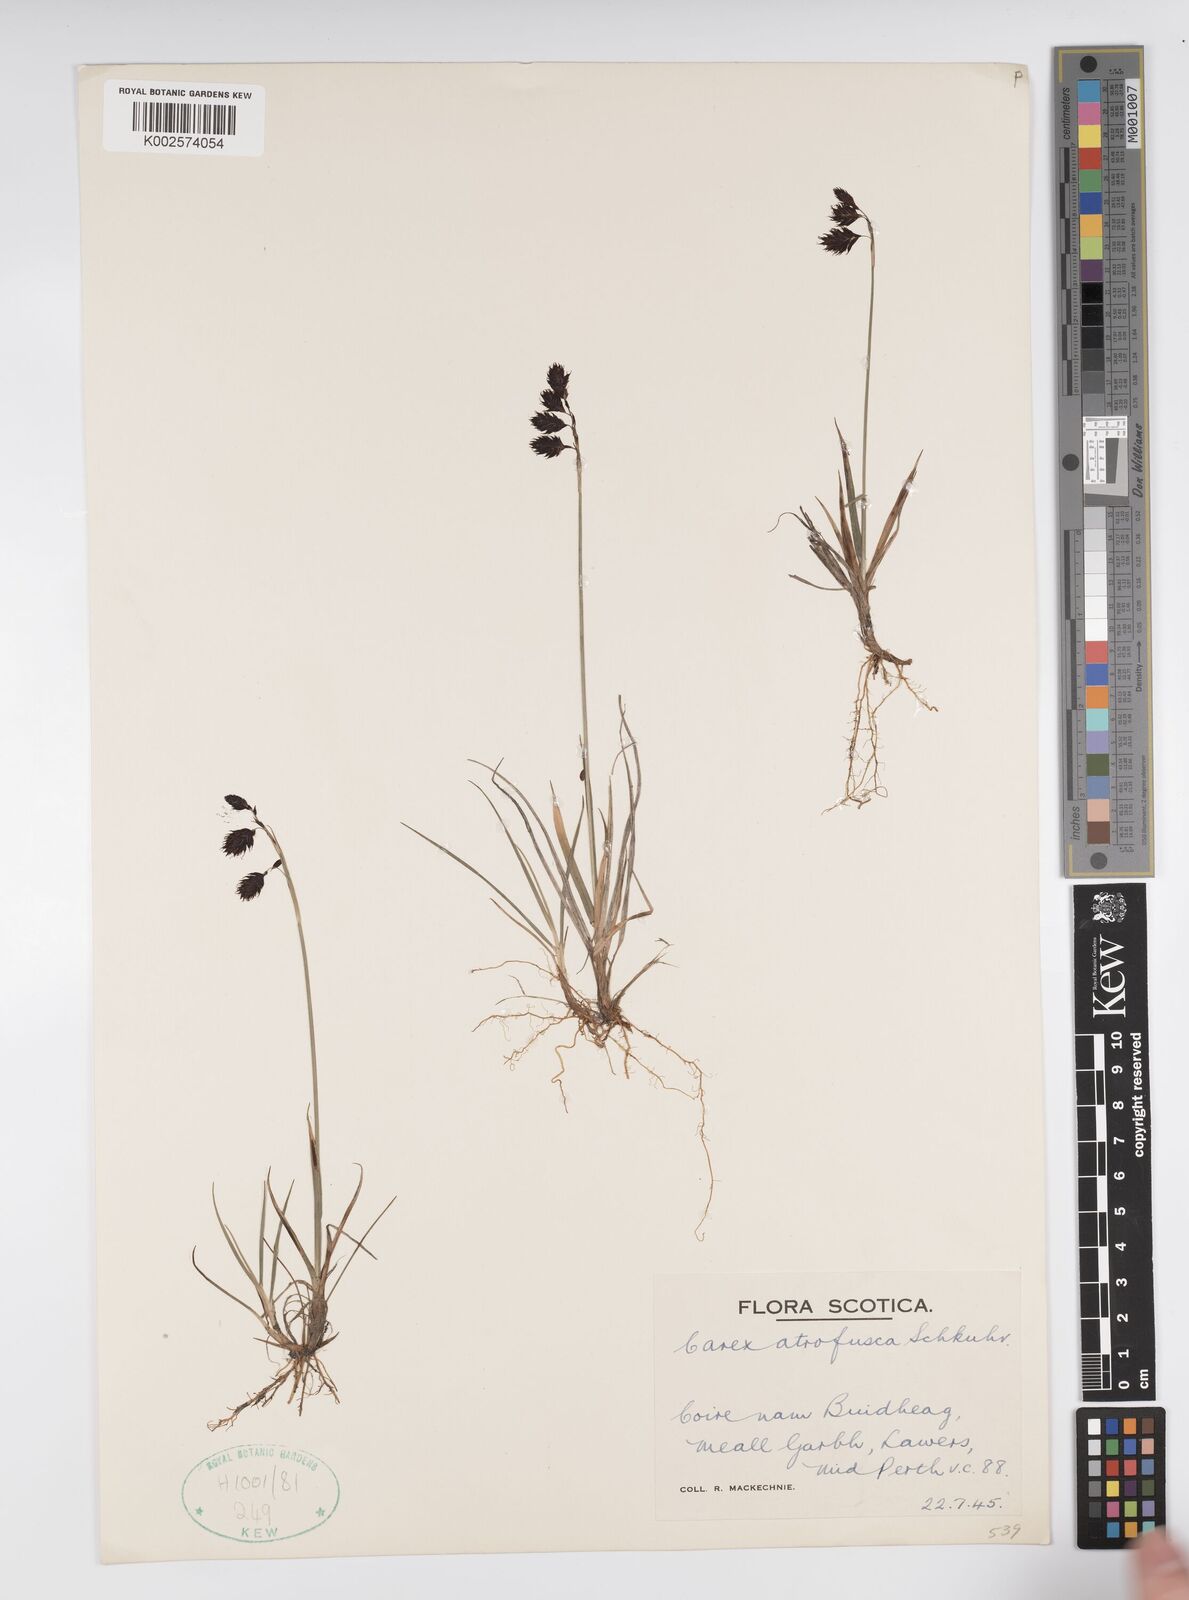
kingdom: Plantae
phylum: Tracheophyta
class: Liliopsida
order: Poales
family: Cyperaceae
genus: Carex
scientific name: Carex atrofusca
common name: Scorched alpine-sedge
